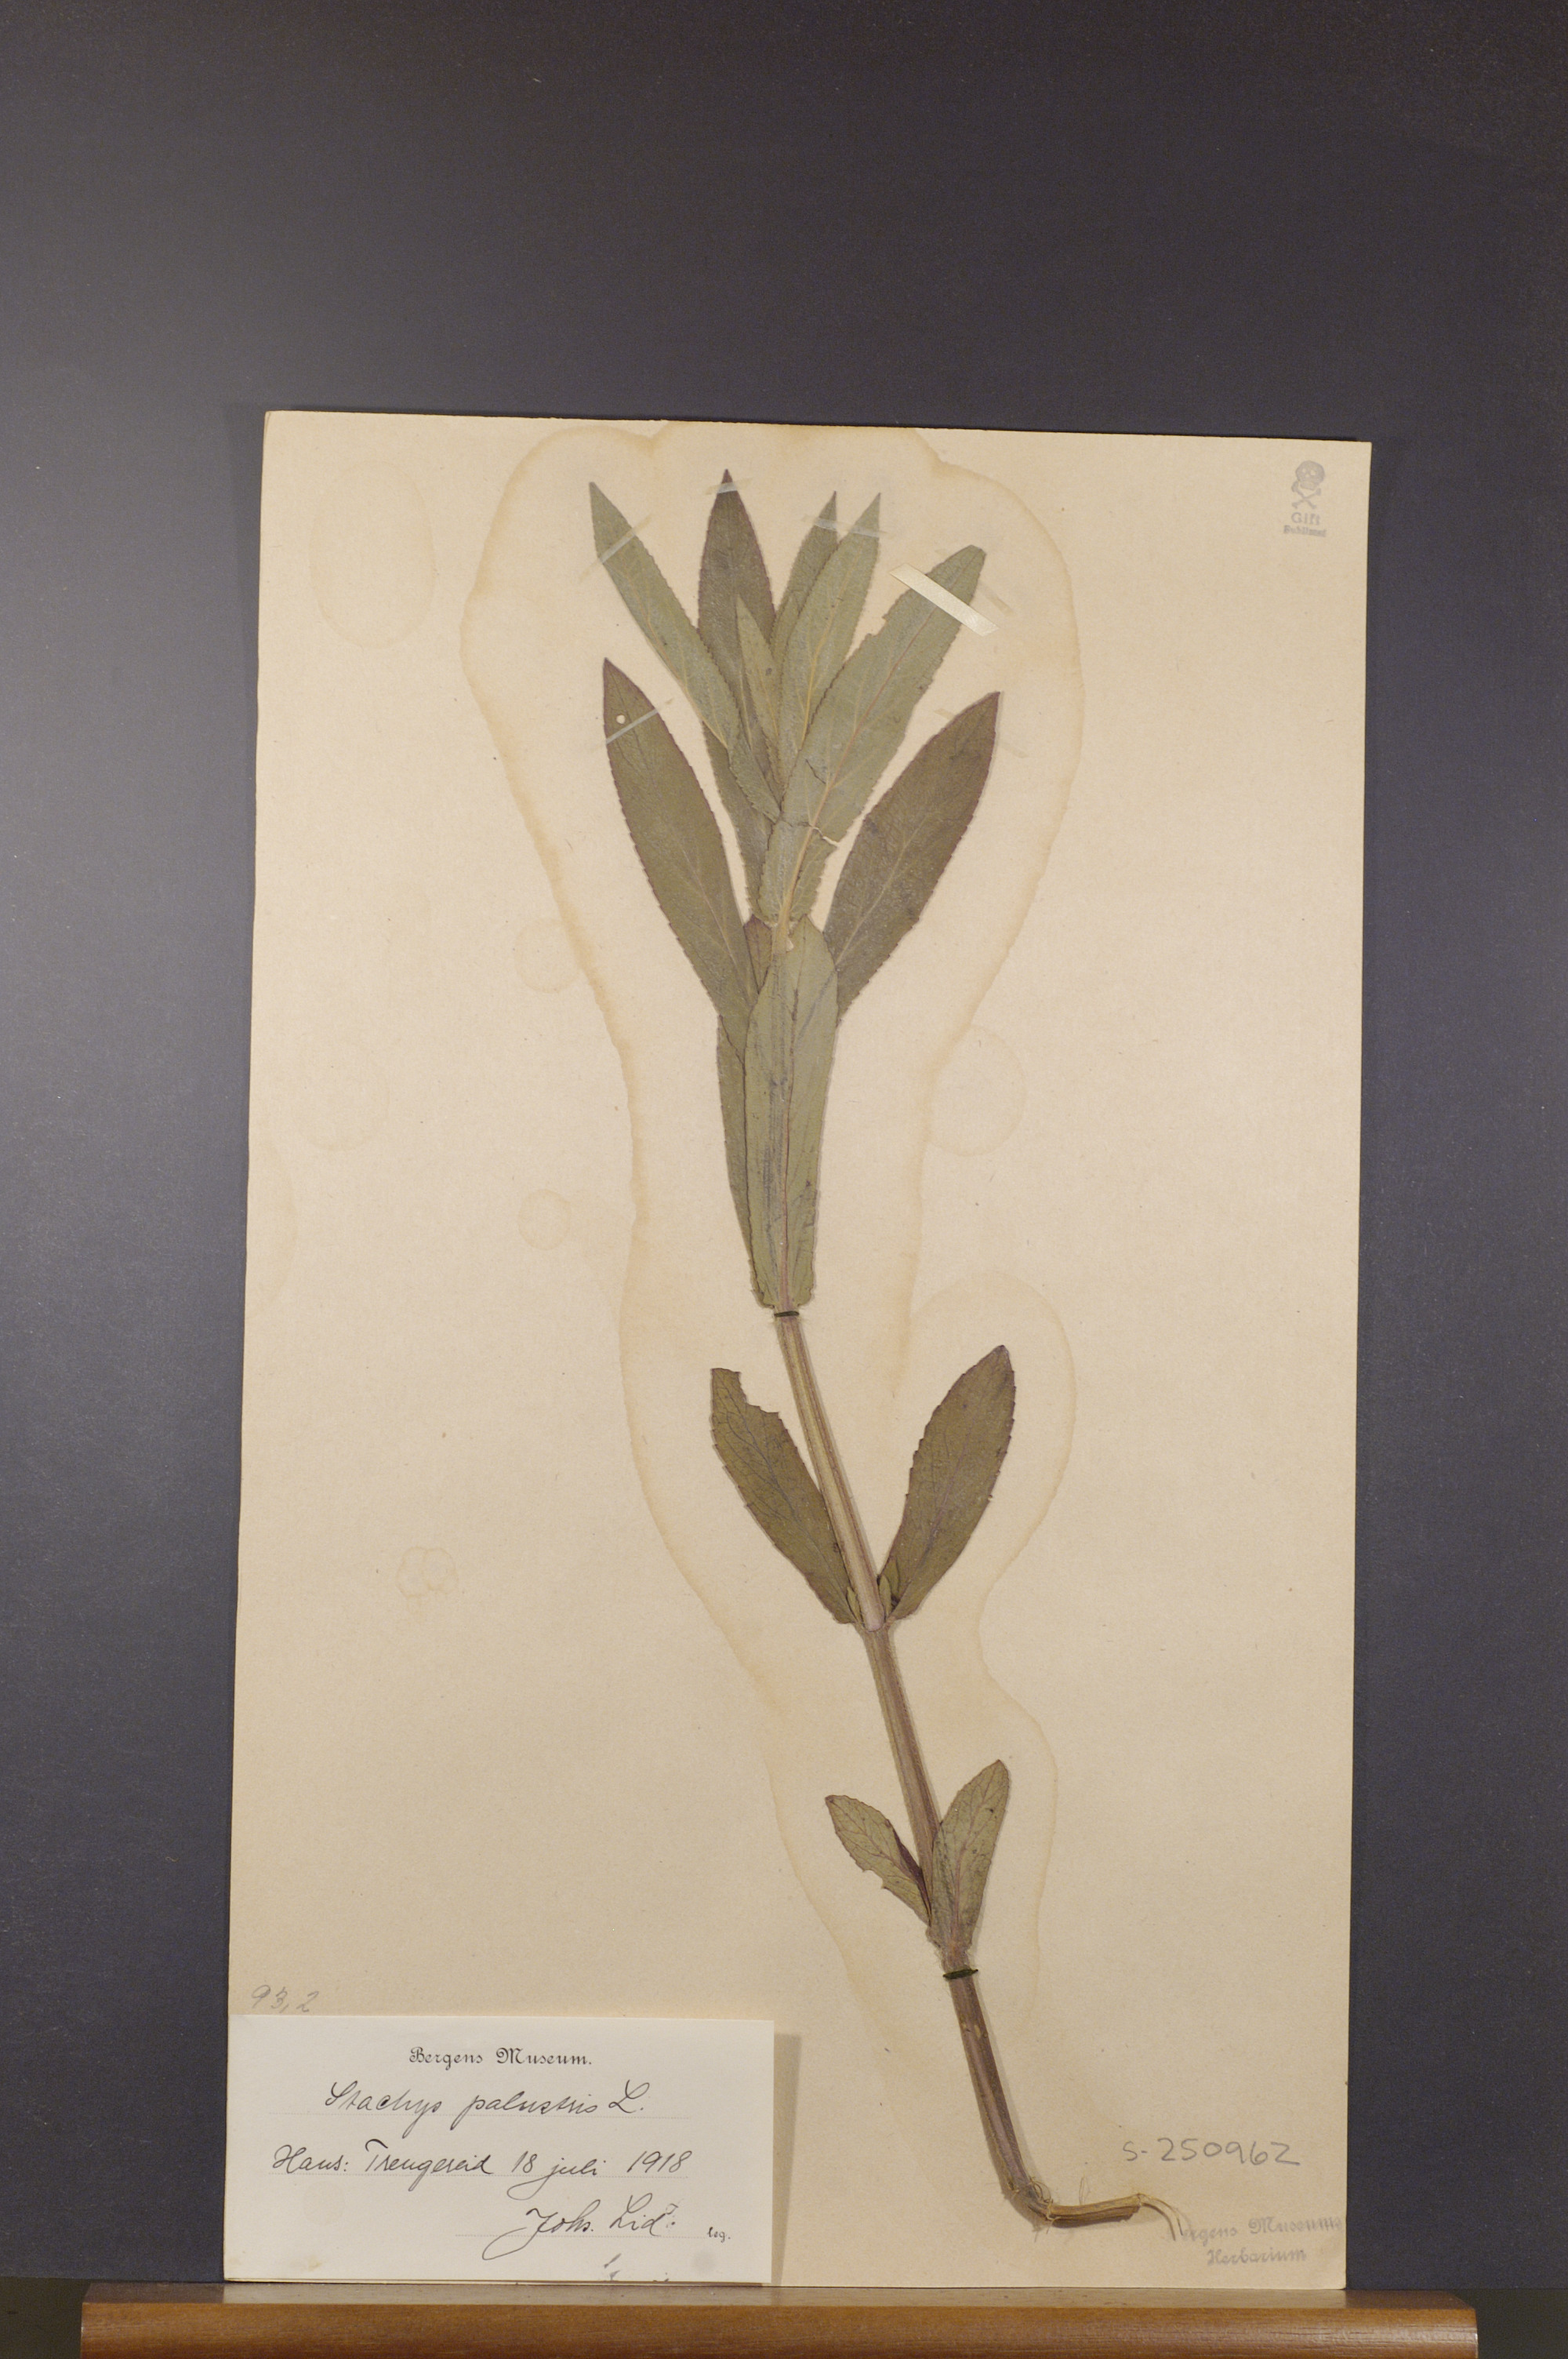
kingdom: Plantae
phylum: Tracheophyta
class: Magnoliopsida
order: Lamiales
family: Lamiaceae
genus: Stachys
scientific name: Stachys palustris
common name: Marsh woundwort
